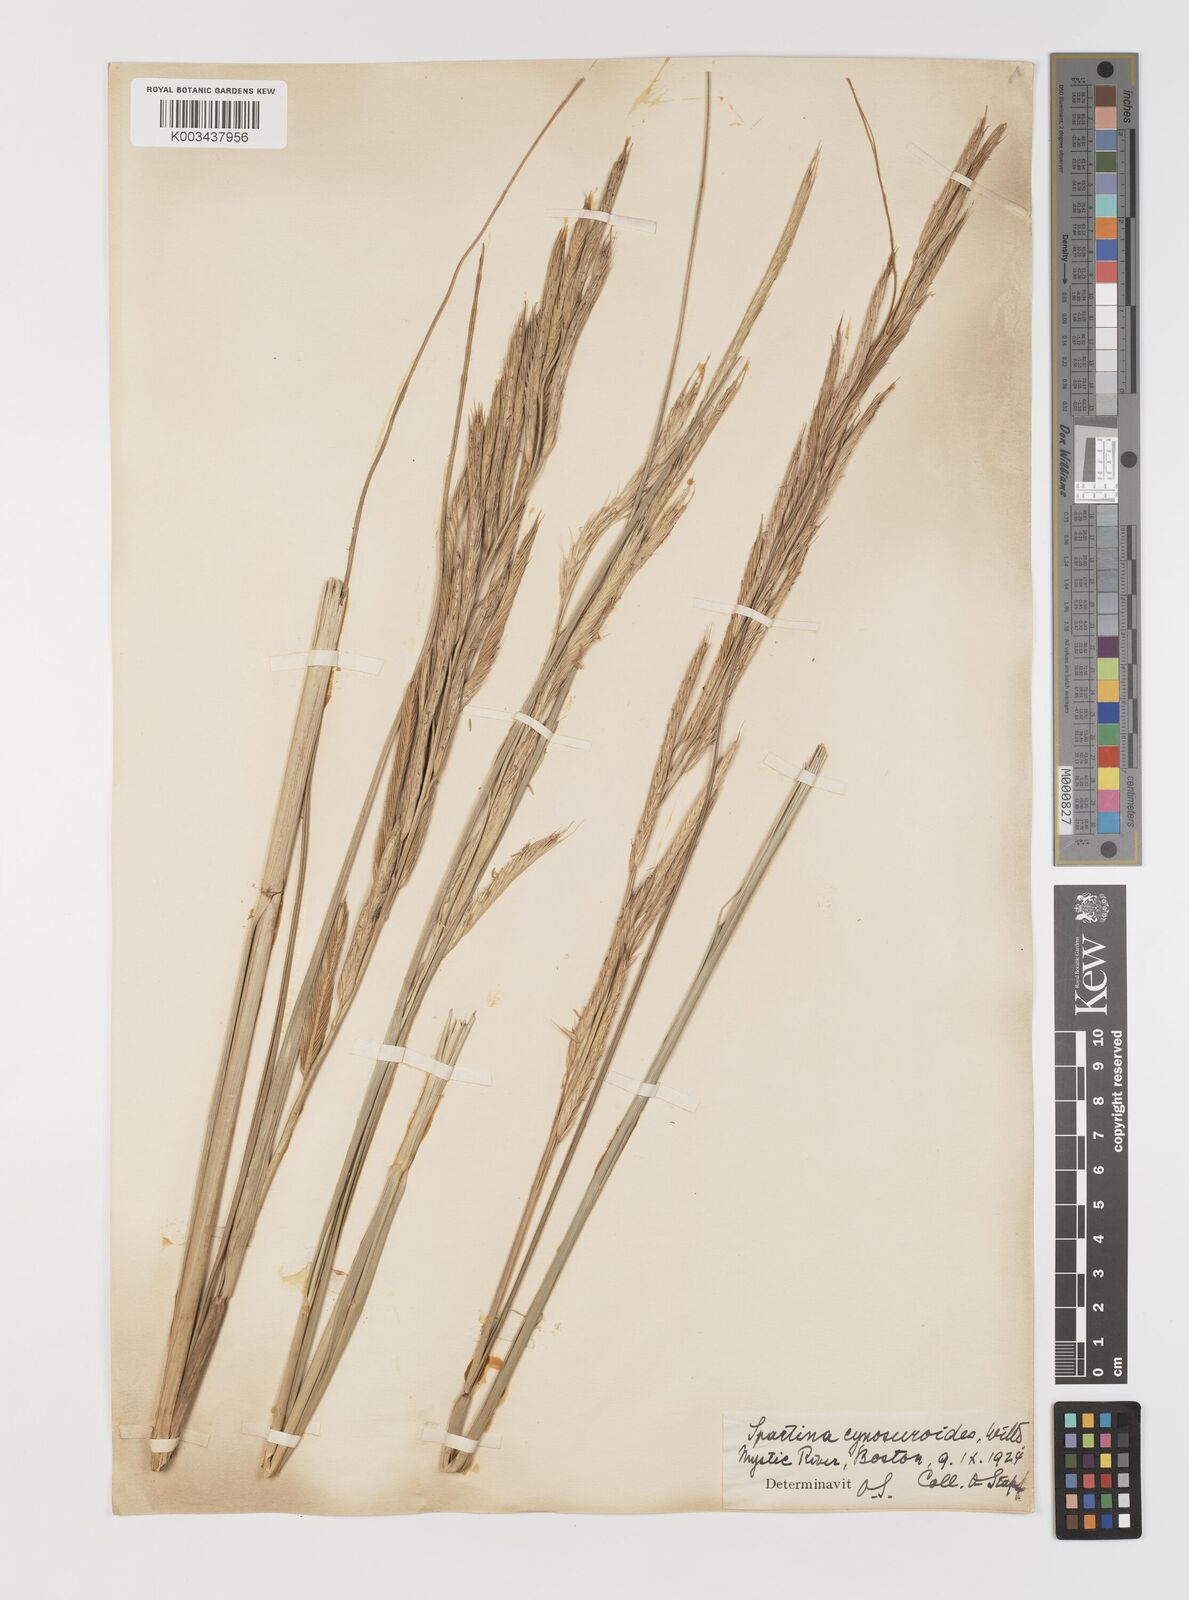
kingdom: Plantae
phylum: Tracheophyta
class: Liliopsida
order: Poales
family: Poaceae
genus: Sporobolus
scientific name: Sporobolus michauxianus
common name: Freshwater cordgrass
